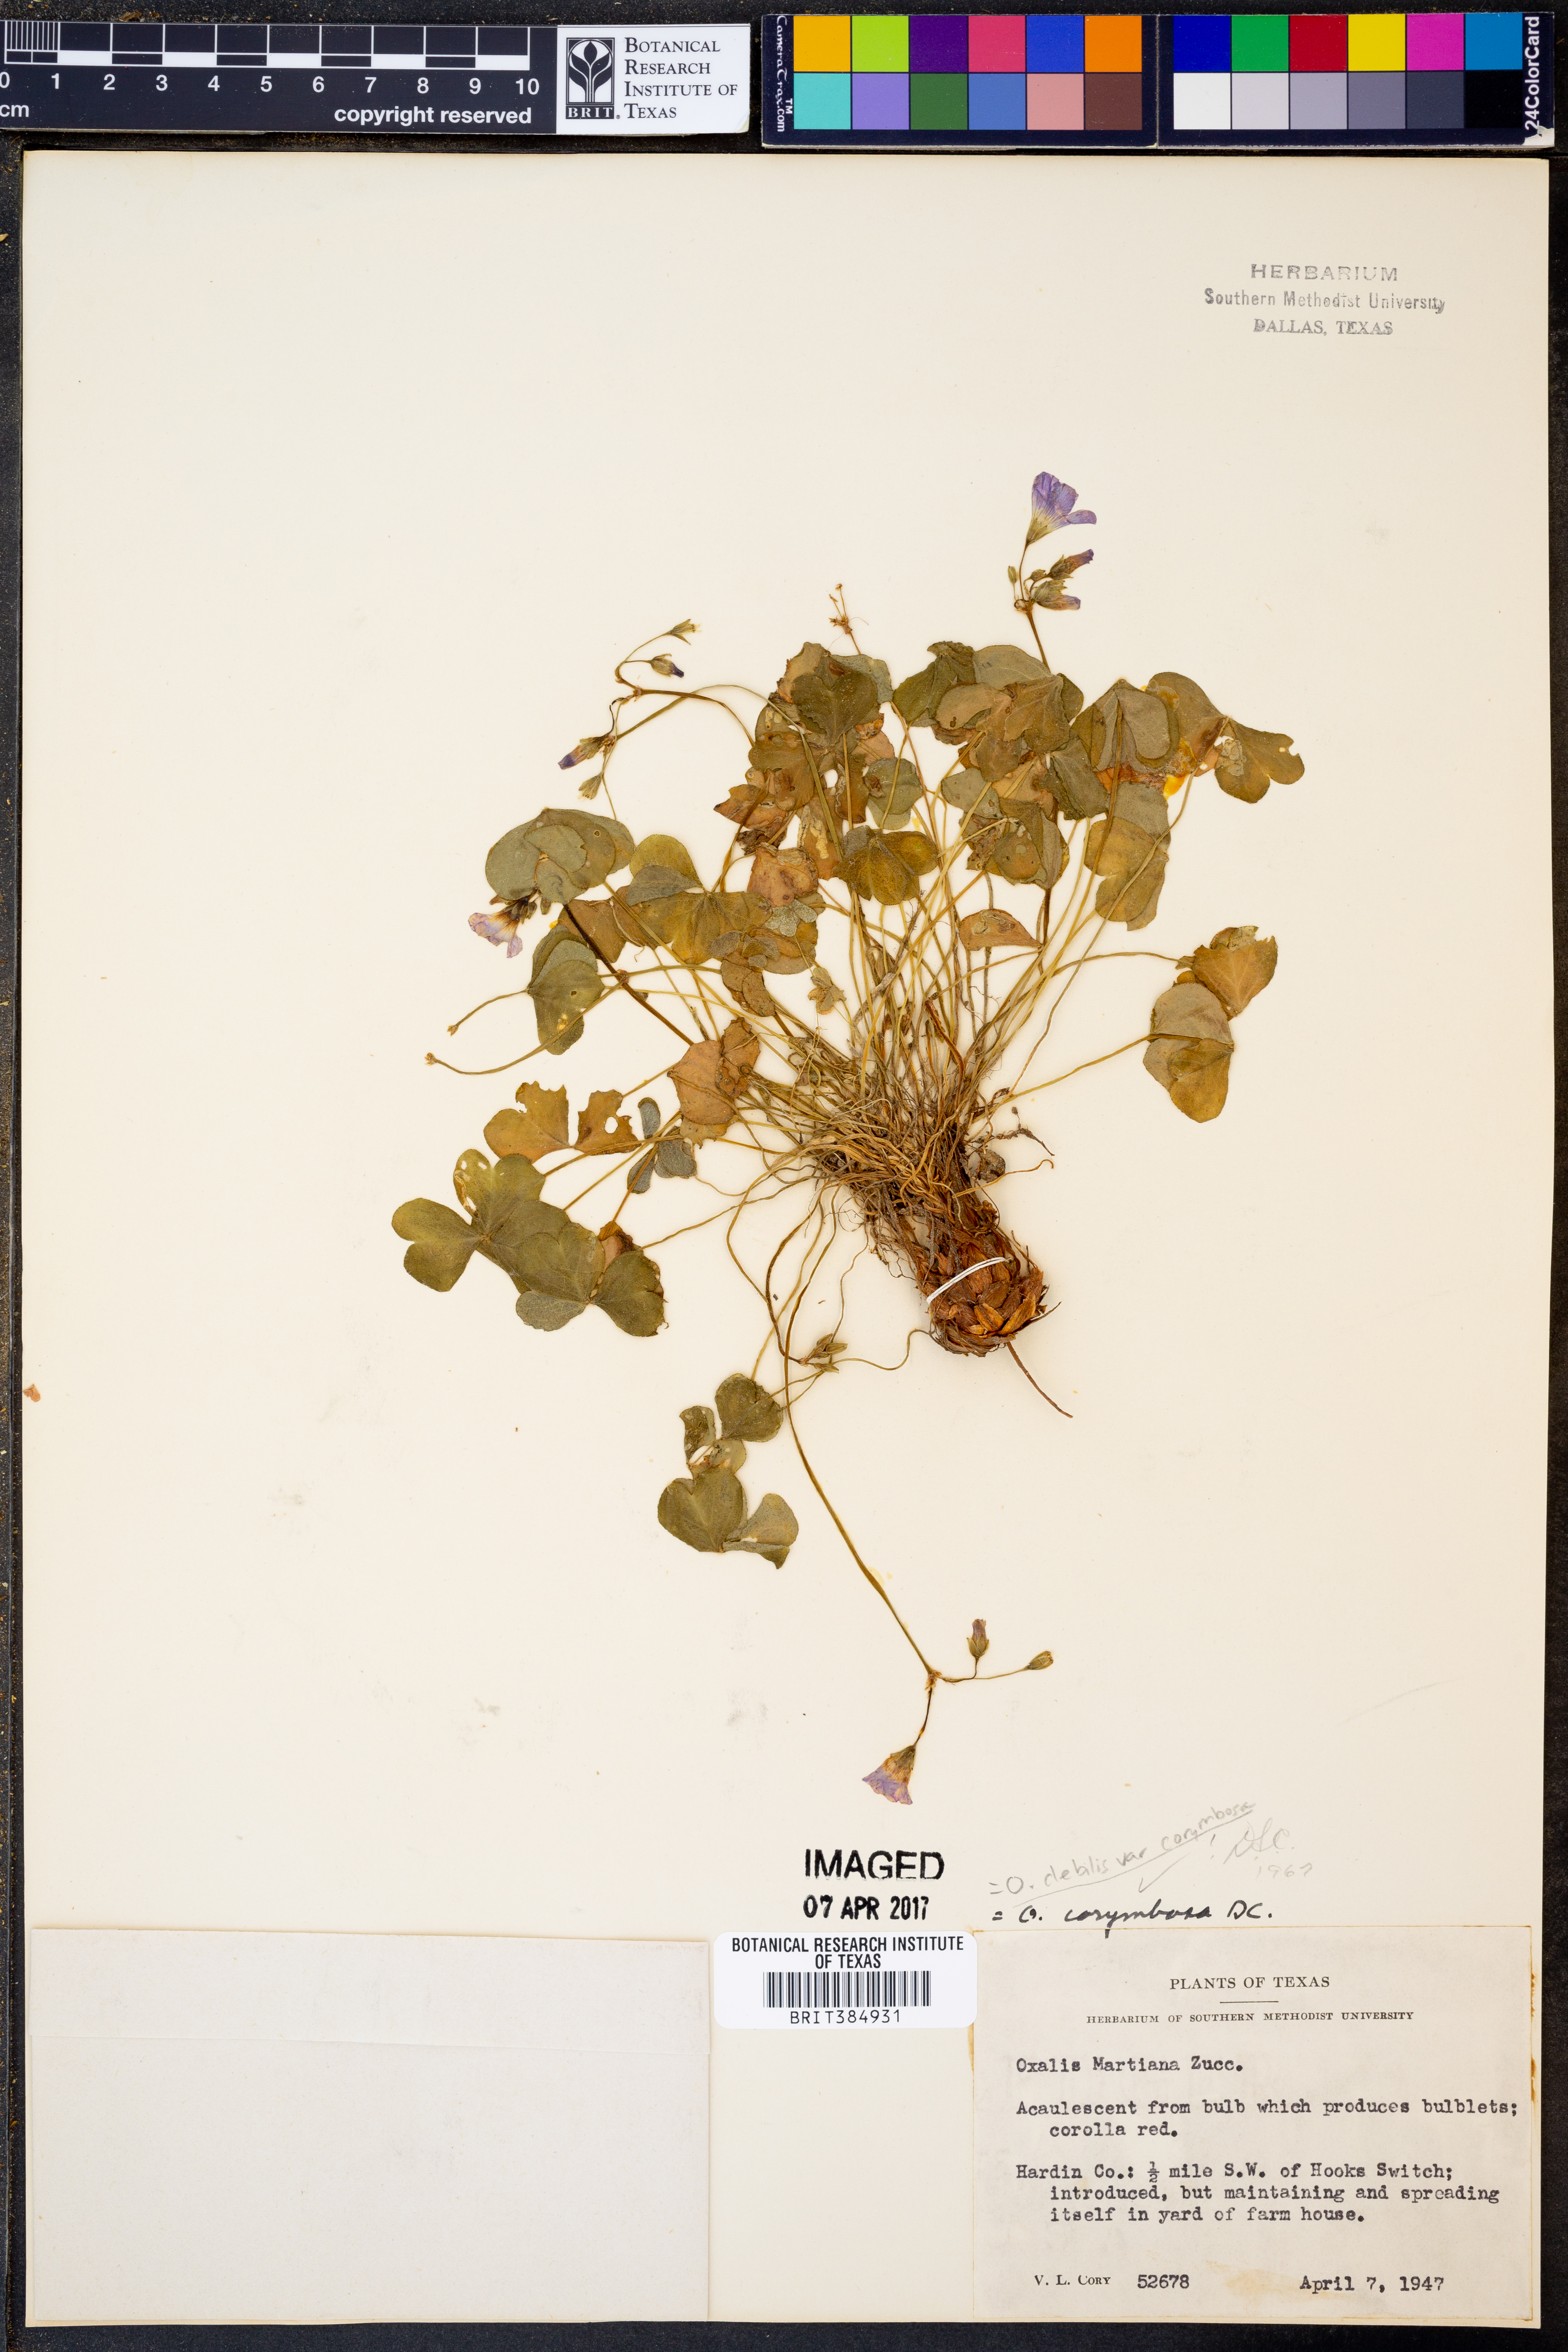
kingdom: Plantae
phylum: Tracheophyta
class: Magnoliopsida
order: Oxalidales
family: Oxalidaceae
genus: Oxalis
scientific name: Oxalis debilis
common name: Large-flowered pink-sorrel
